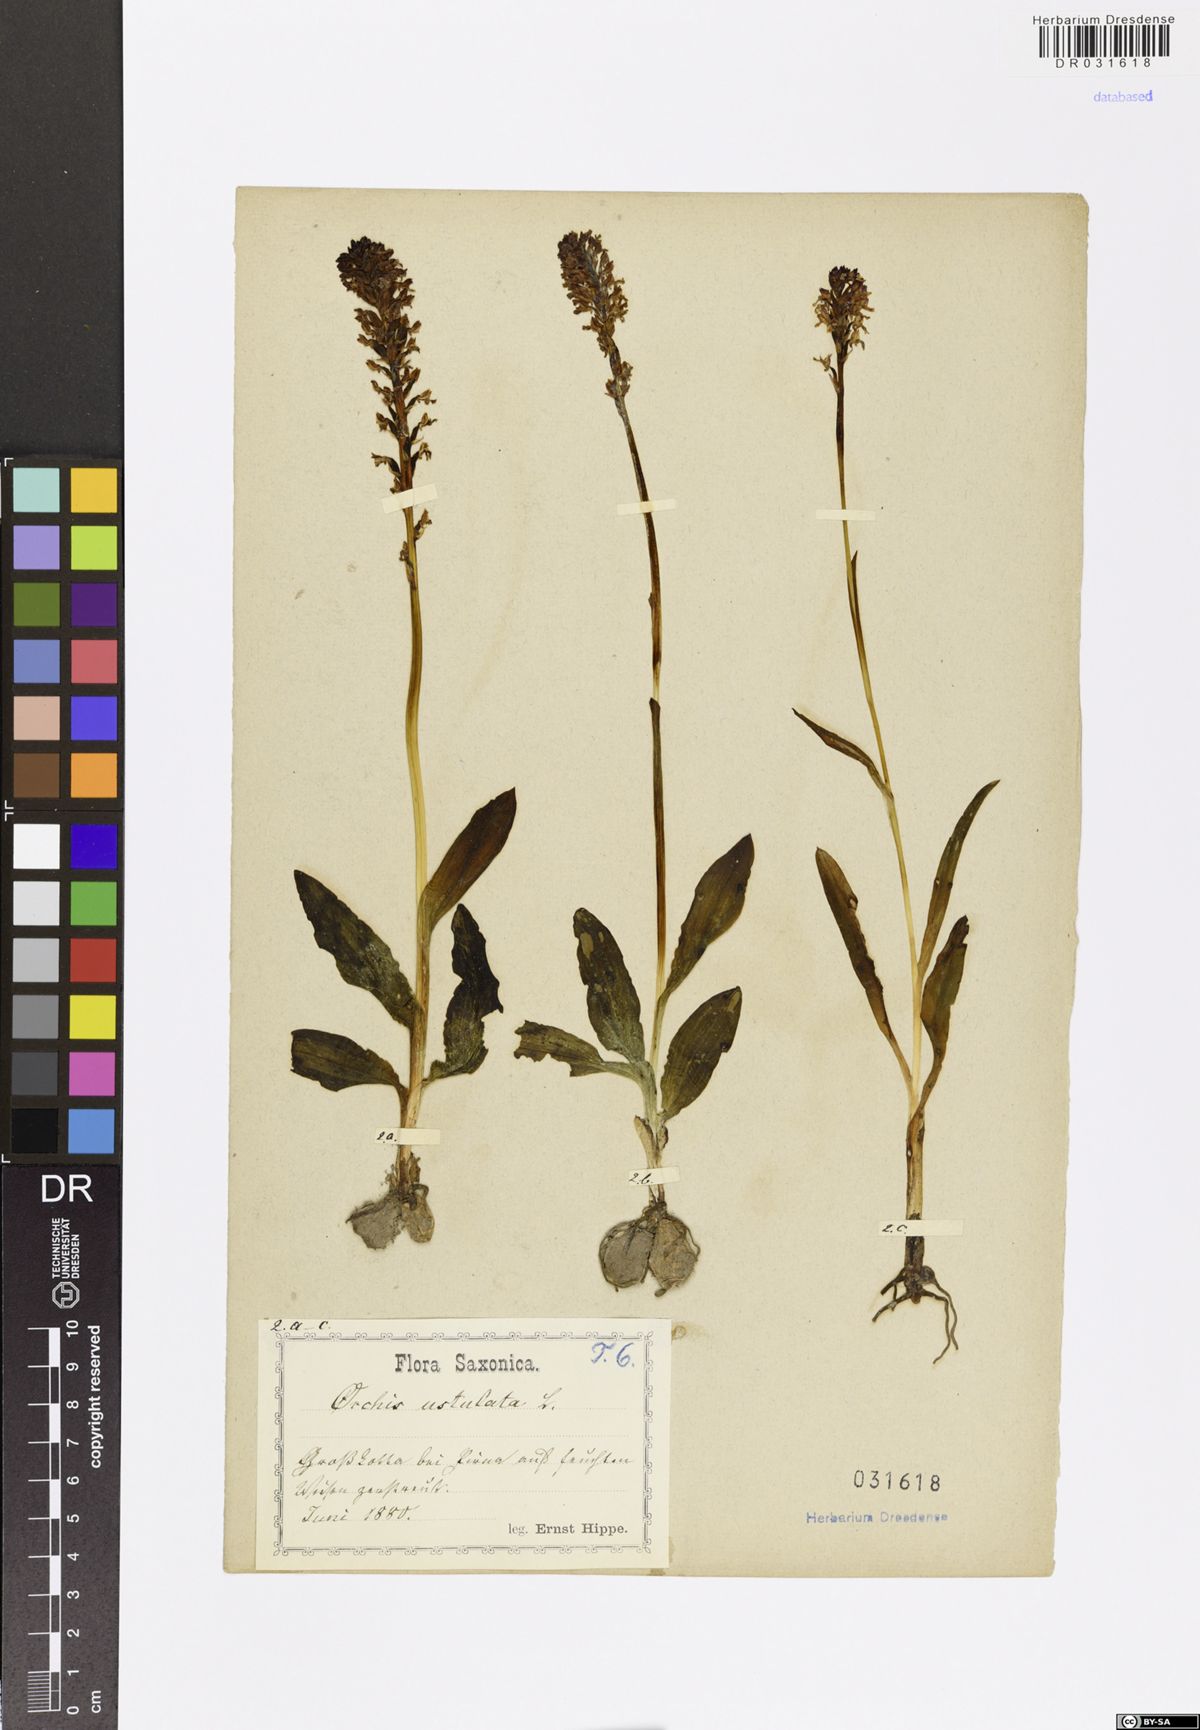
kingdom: Plantae
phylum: Tracheophyta
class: Liliopsida
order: Asparagales
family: Orchidaceae
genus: Neotinea
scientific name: Neotinea ustulata
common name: Burnt orchid
